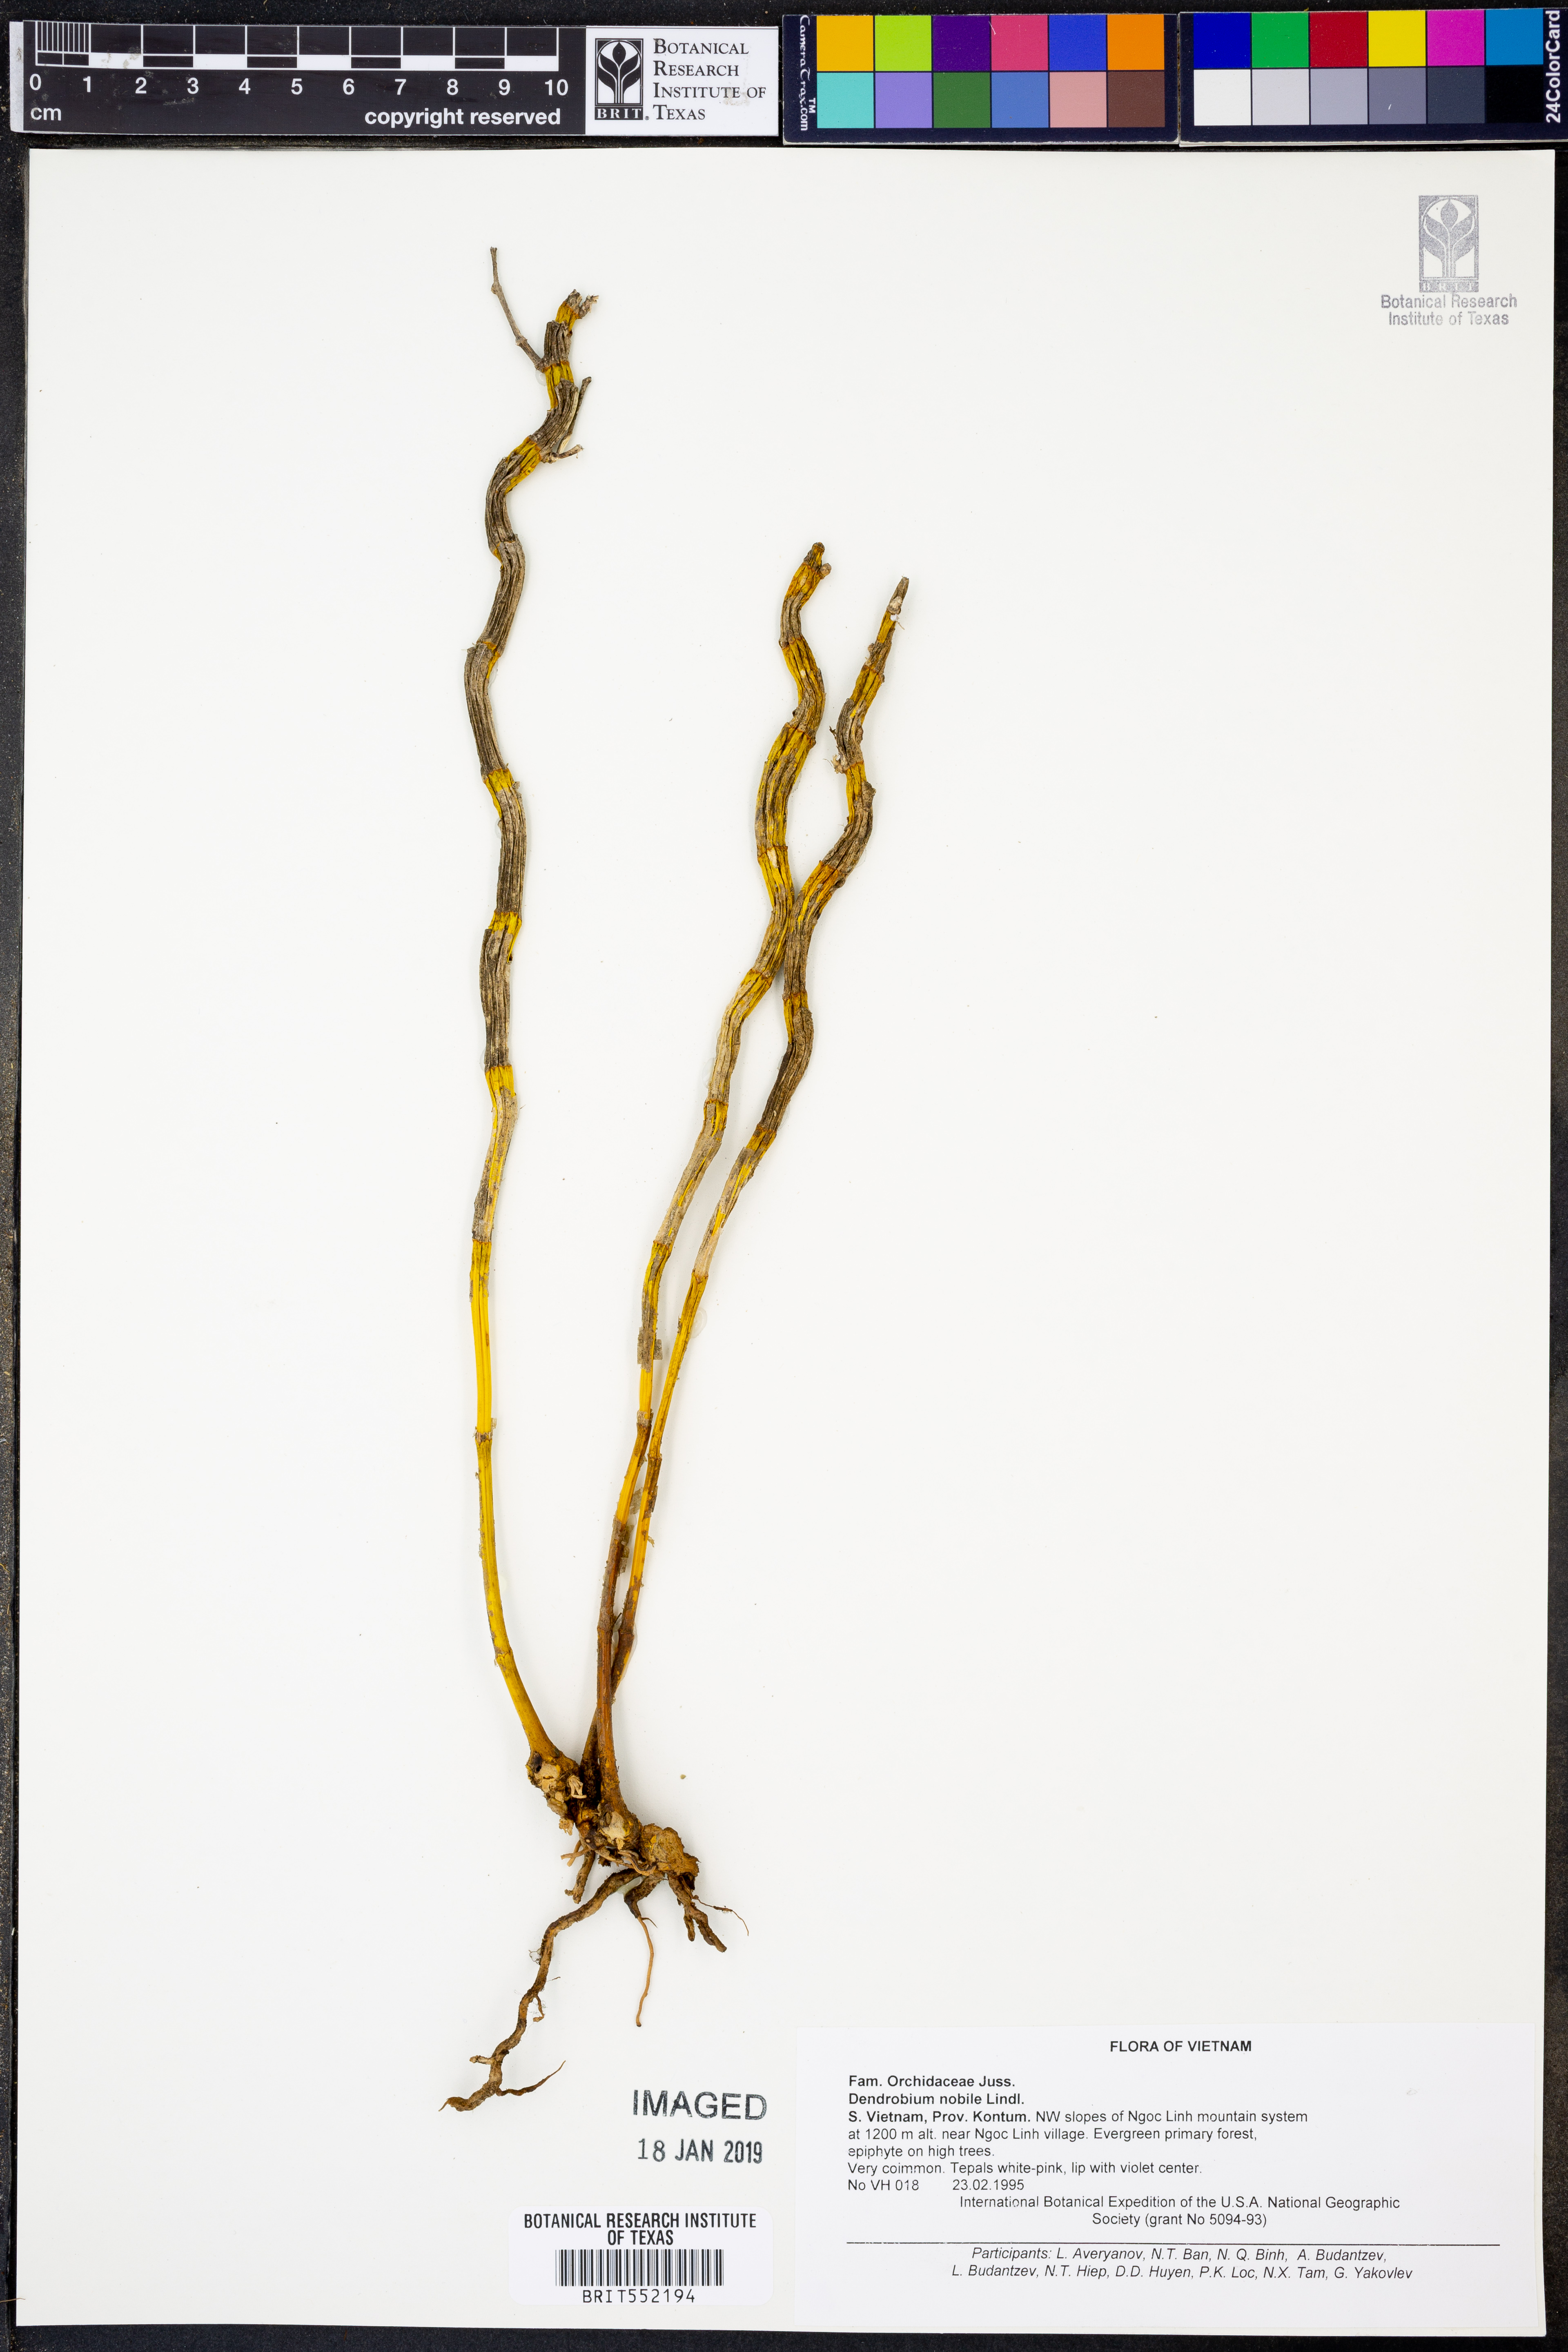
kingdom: Plantae
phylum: Tracheophyta
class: Liliopsida
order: Asparagales
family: Orchidaceae
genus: Dendrobium
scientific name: Dendrobium nobile
